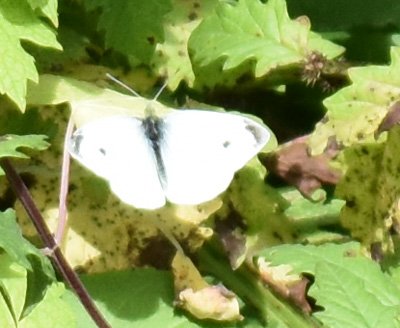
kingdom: Animalia
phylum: Arthropoda
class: Insecta
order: Lepidoptera
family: Pieridae
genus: Pieris
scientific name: Pieris rapae
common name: Cabbage White
